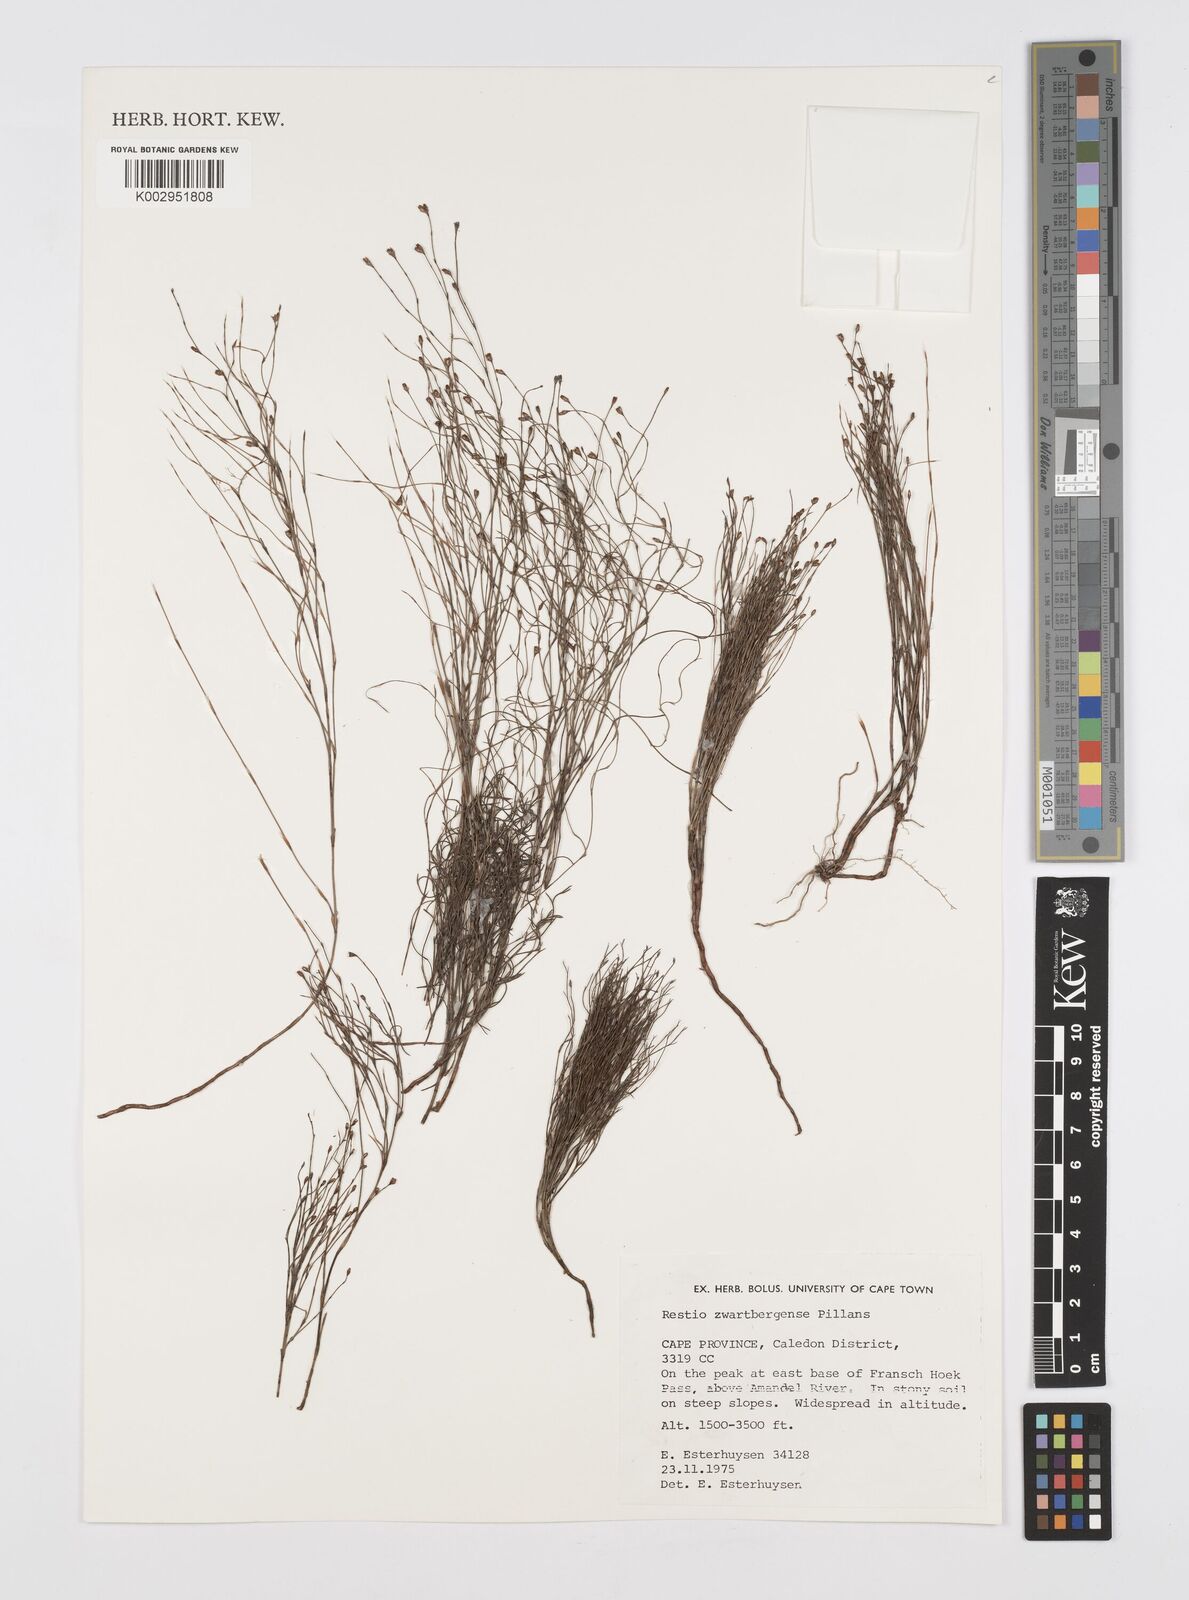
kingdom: Plantae
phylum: Tracheophyta
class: Liliopsida
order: Poales
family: Restionaceae
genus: Restio
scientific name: Restio zwartbergensis
